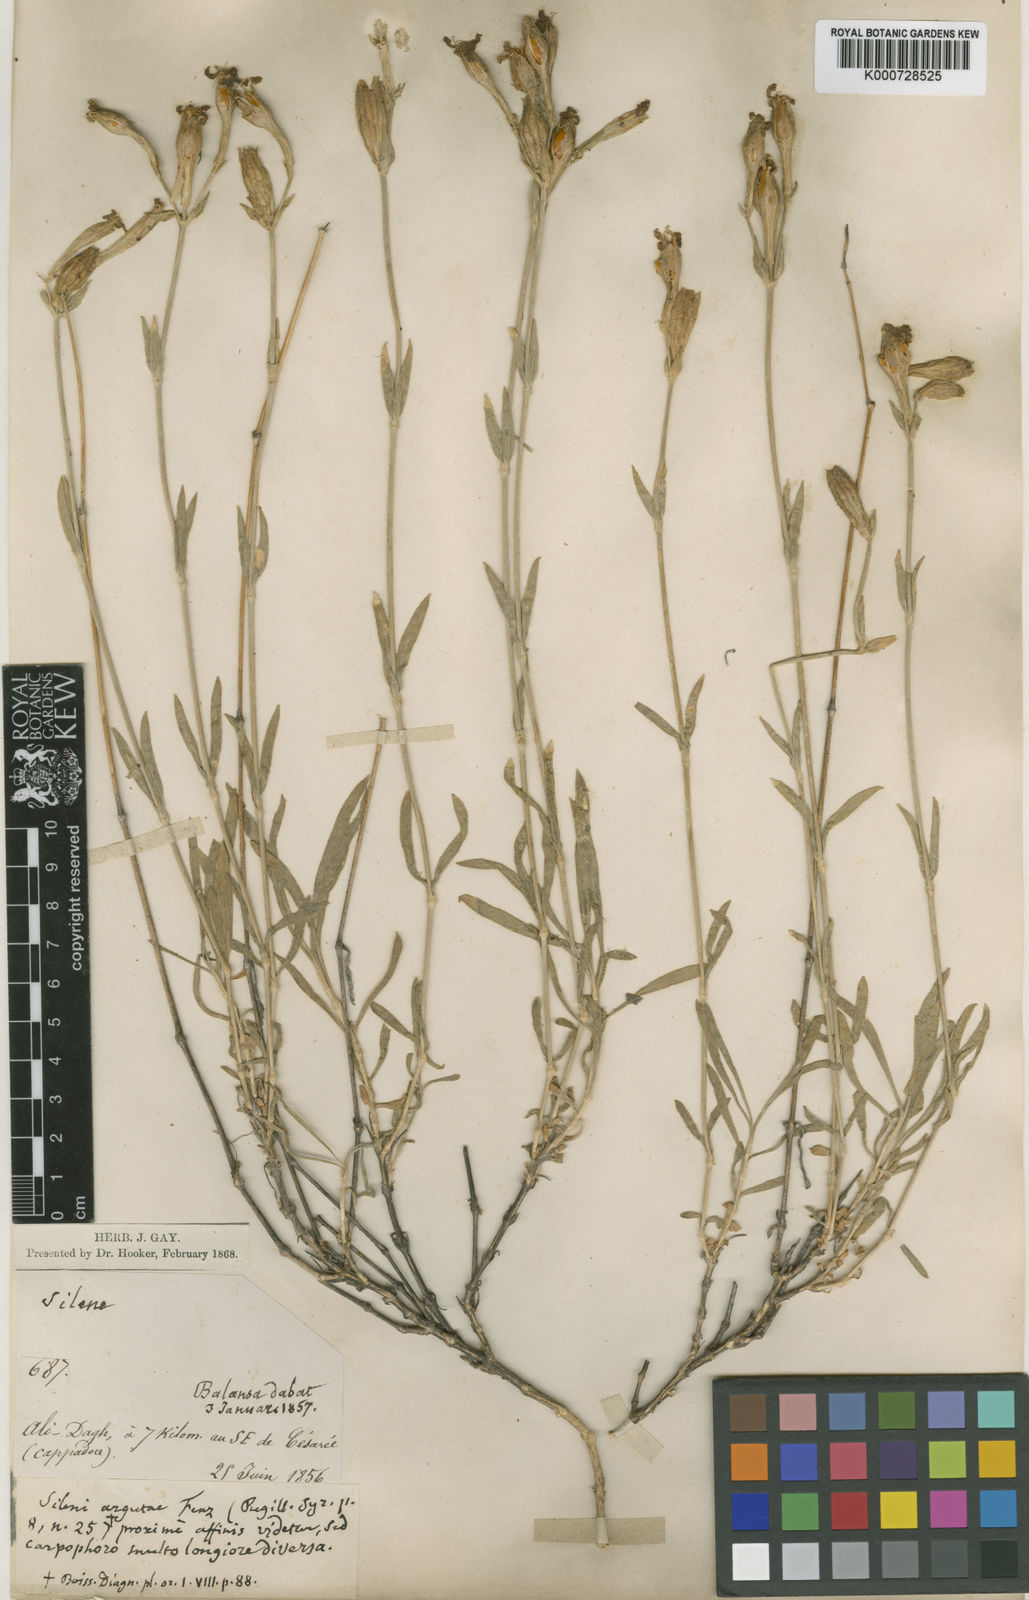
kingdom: Plantae
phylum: Tracheophyta
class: Magnoliopsida
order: Caryophyllales
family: Caryophyllaceae
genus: Silene
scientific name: Silene oreophila
